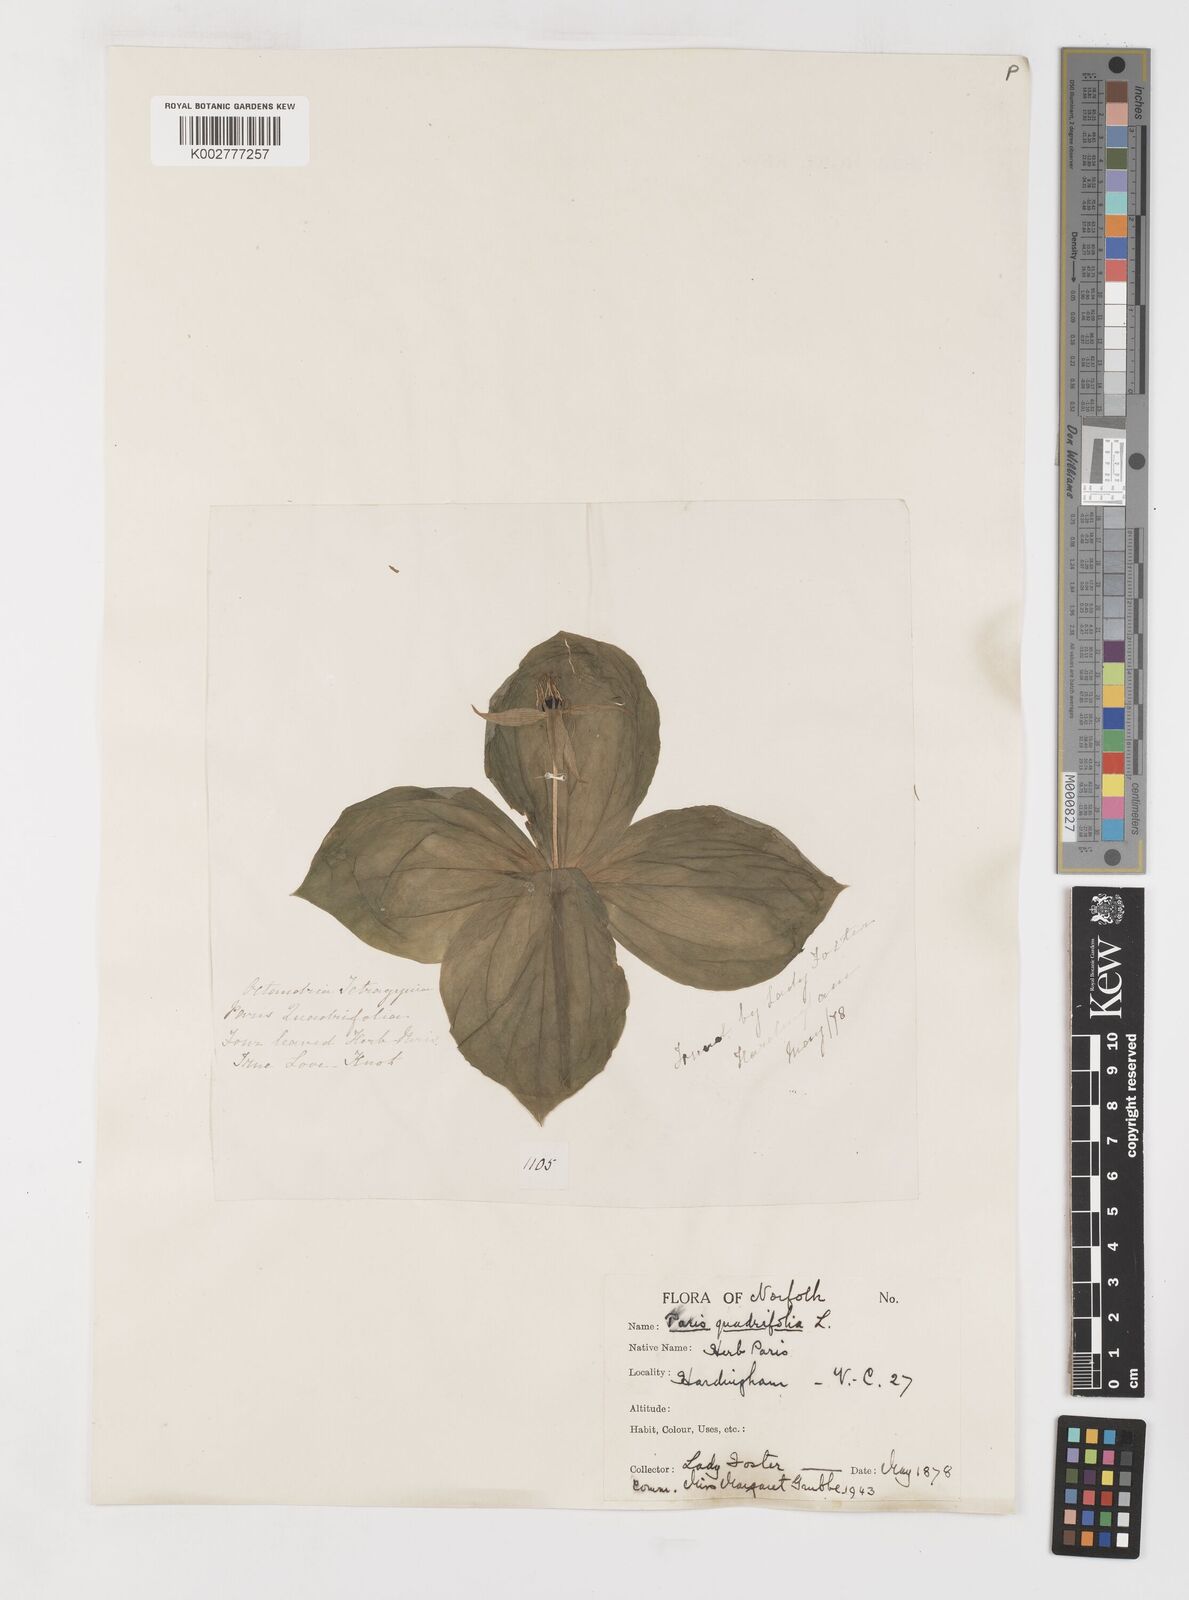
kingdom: Plantae
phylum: Tracheophyta
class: Liliopsida
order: Liliales
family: Melanthiaceae
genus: Paris
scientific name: Paris
